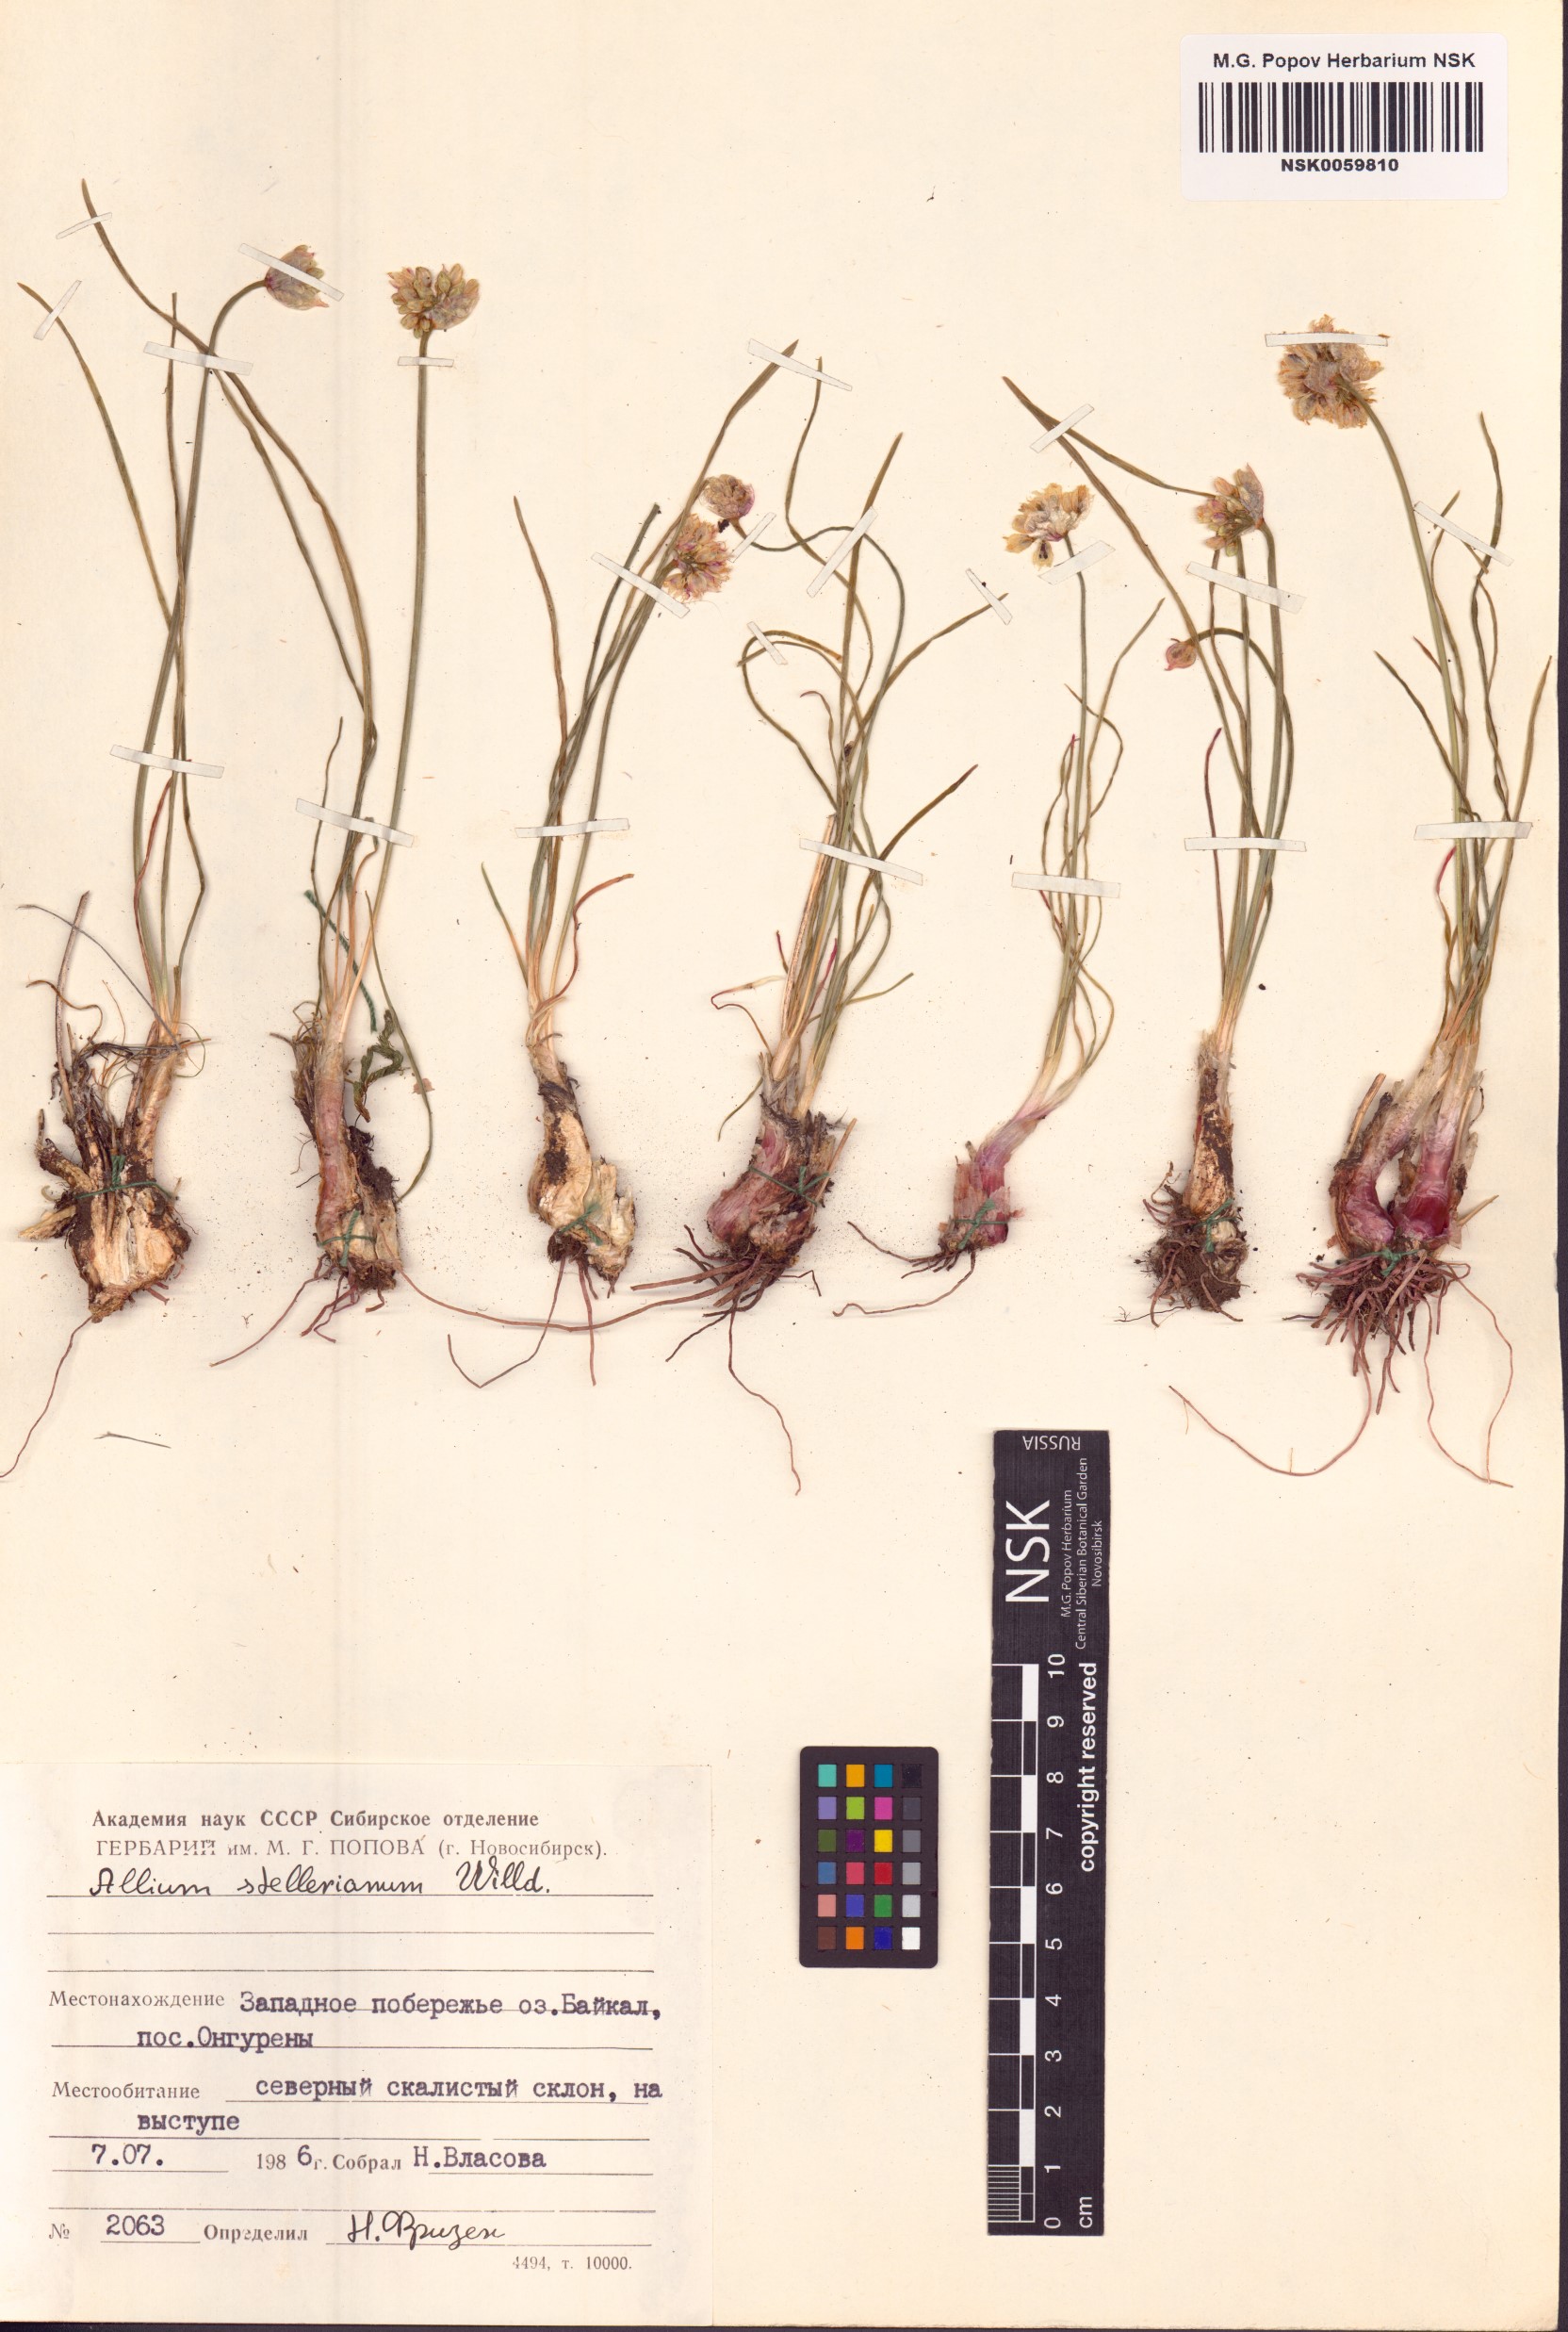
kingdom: Plantae
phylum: Tracheophyta
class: Liliopsida
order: Asparagales
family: Amaryllidaceae
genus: Allium
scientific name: Allium stellerianum
